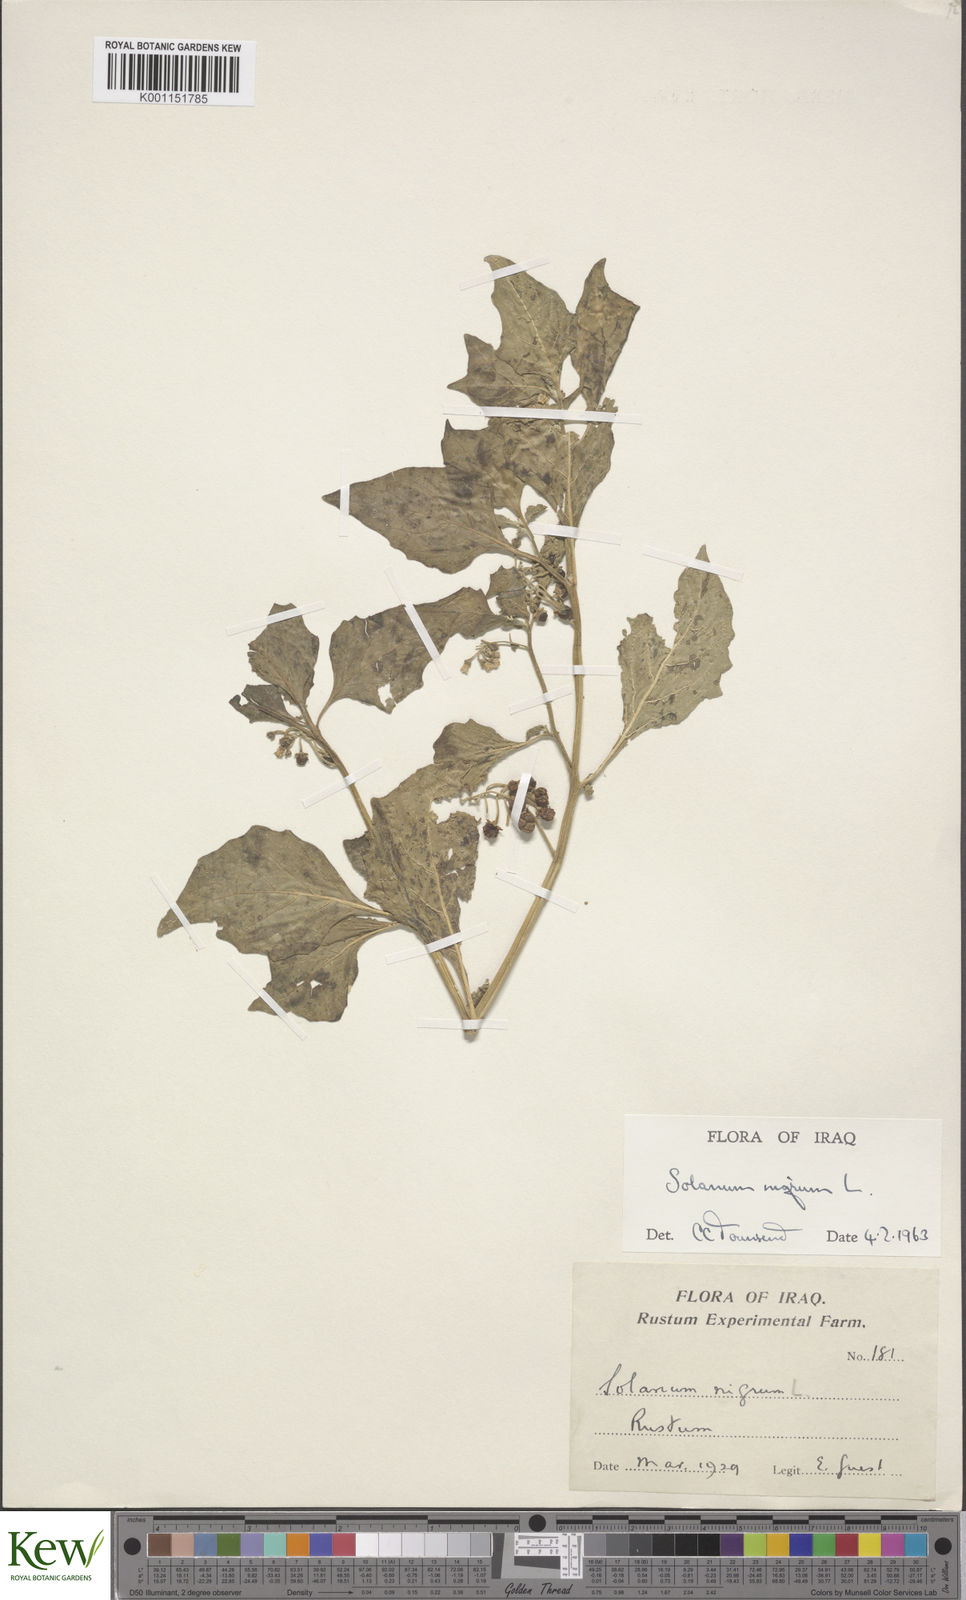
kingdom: Plantae
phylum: Tracheophyta
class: Magnoliopsida
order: Solanales
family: Solanaceae
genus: Solanum
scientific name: Solanum nigrum
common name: Black nightshade
